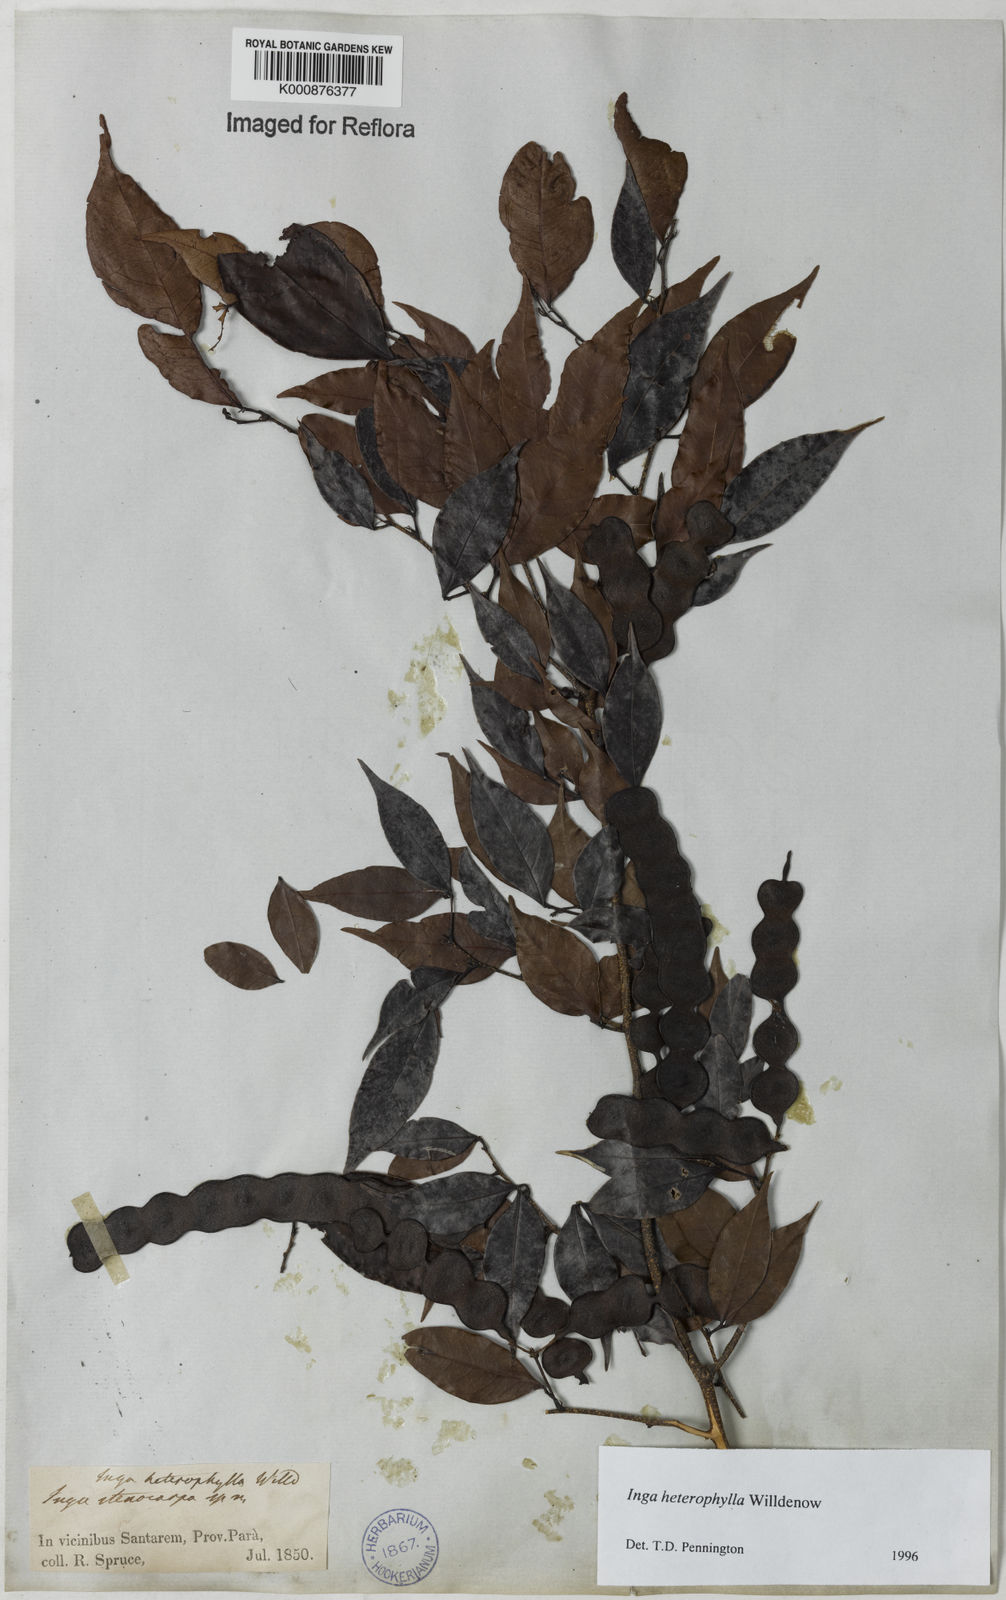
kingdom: Plantae
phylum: Tracheophyta
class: Magnoliopsida
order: Fabales
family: Fabaceae
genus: Inga
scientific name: Inga heterophylla
